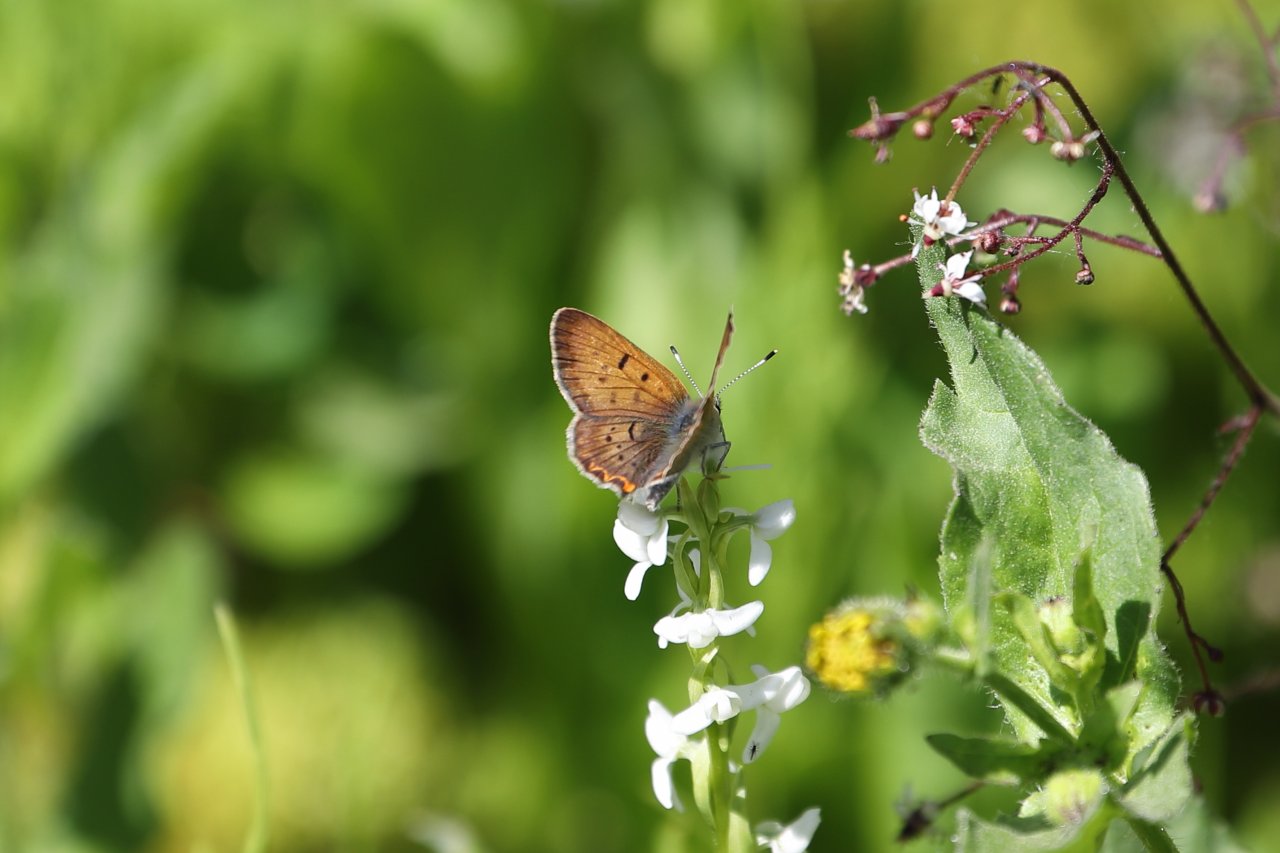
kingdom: Animalia
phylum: Arthropoda
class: Insecta
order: Lepidoptera
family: Sesiidae
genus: Sesia
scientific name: Sesia Lycaena helloides
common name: Purplish Copper
